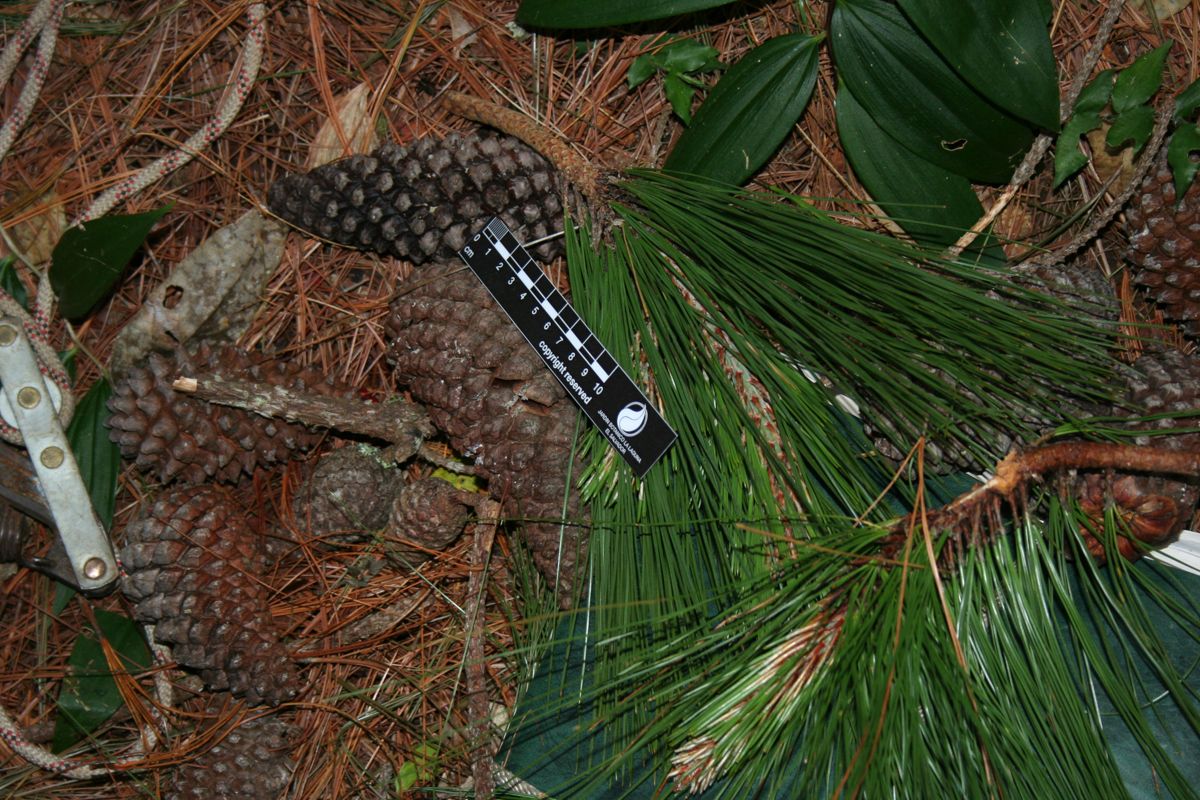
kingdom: Plantae
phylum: Tracheophyta
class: Pinopsida
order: Pinales
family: Pinaceae
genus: Pinus
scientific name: Pinus maximinoi
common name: Thin-leaf pine
